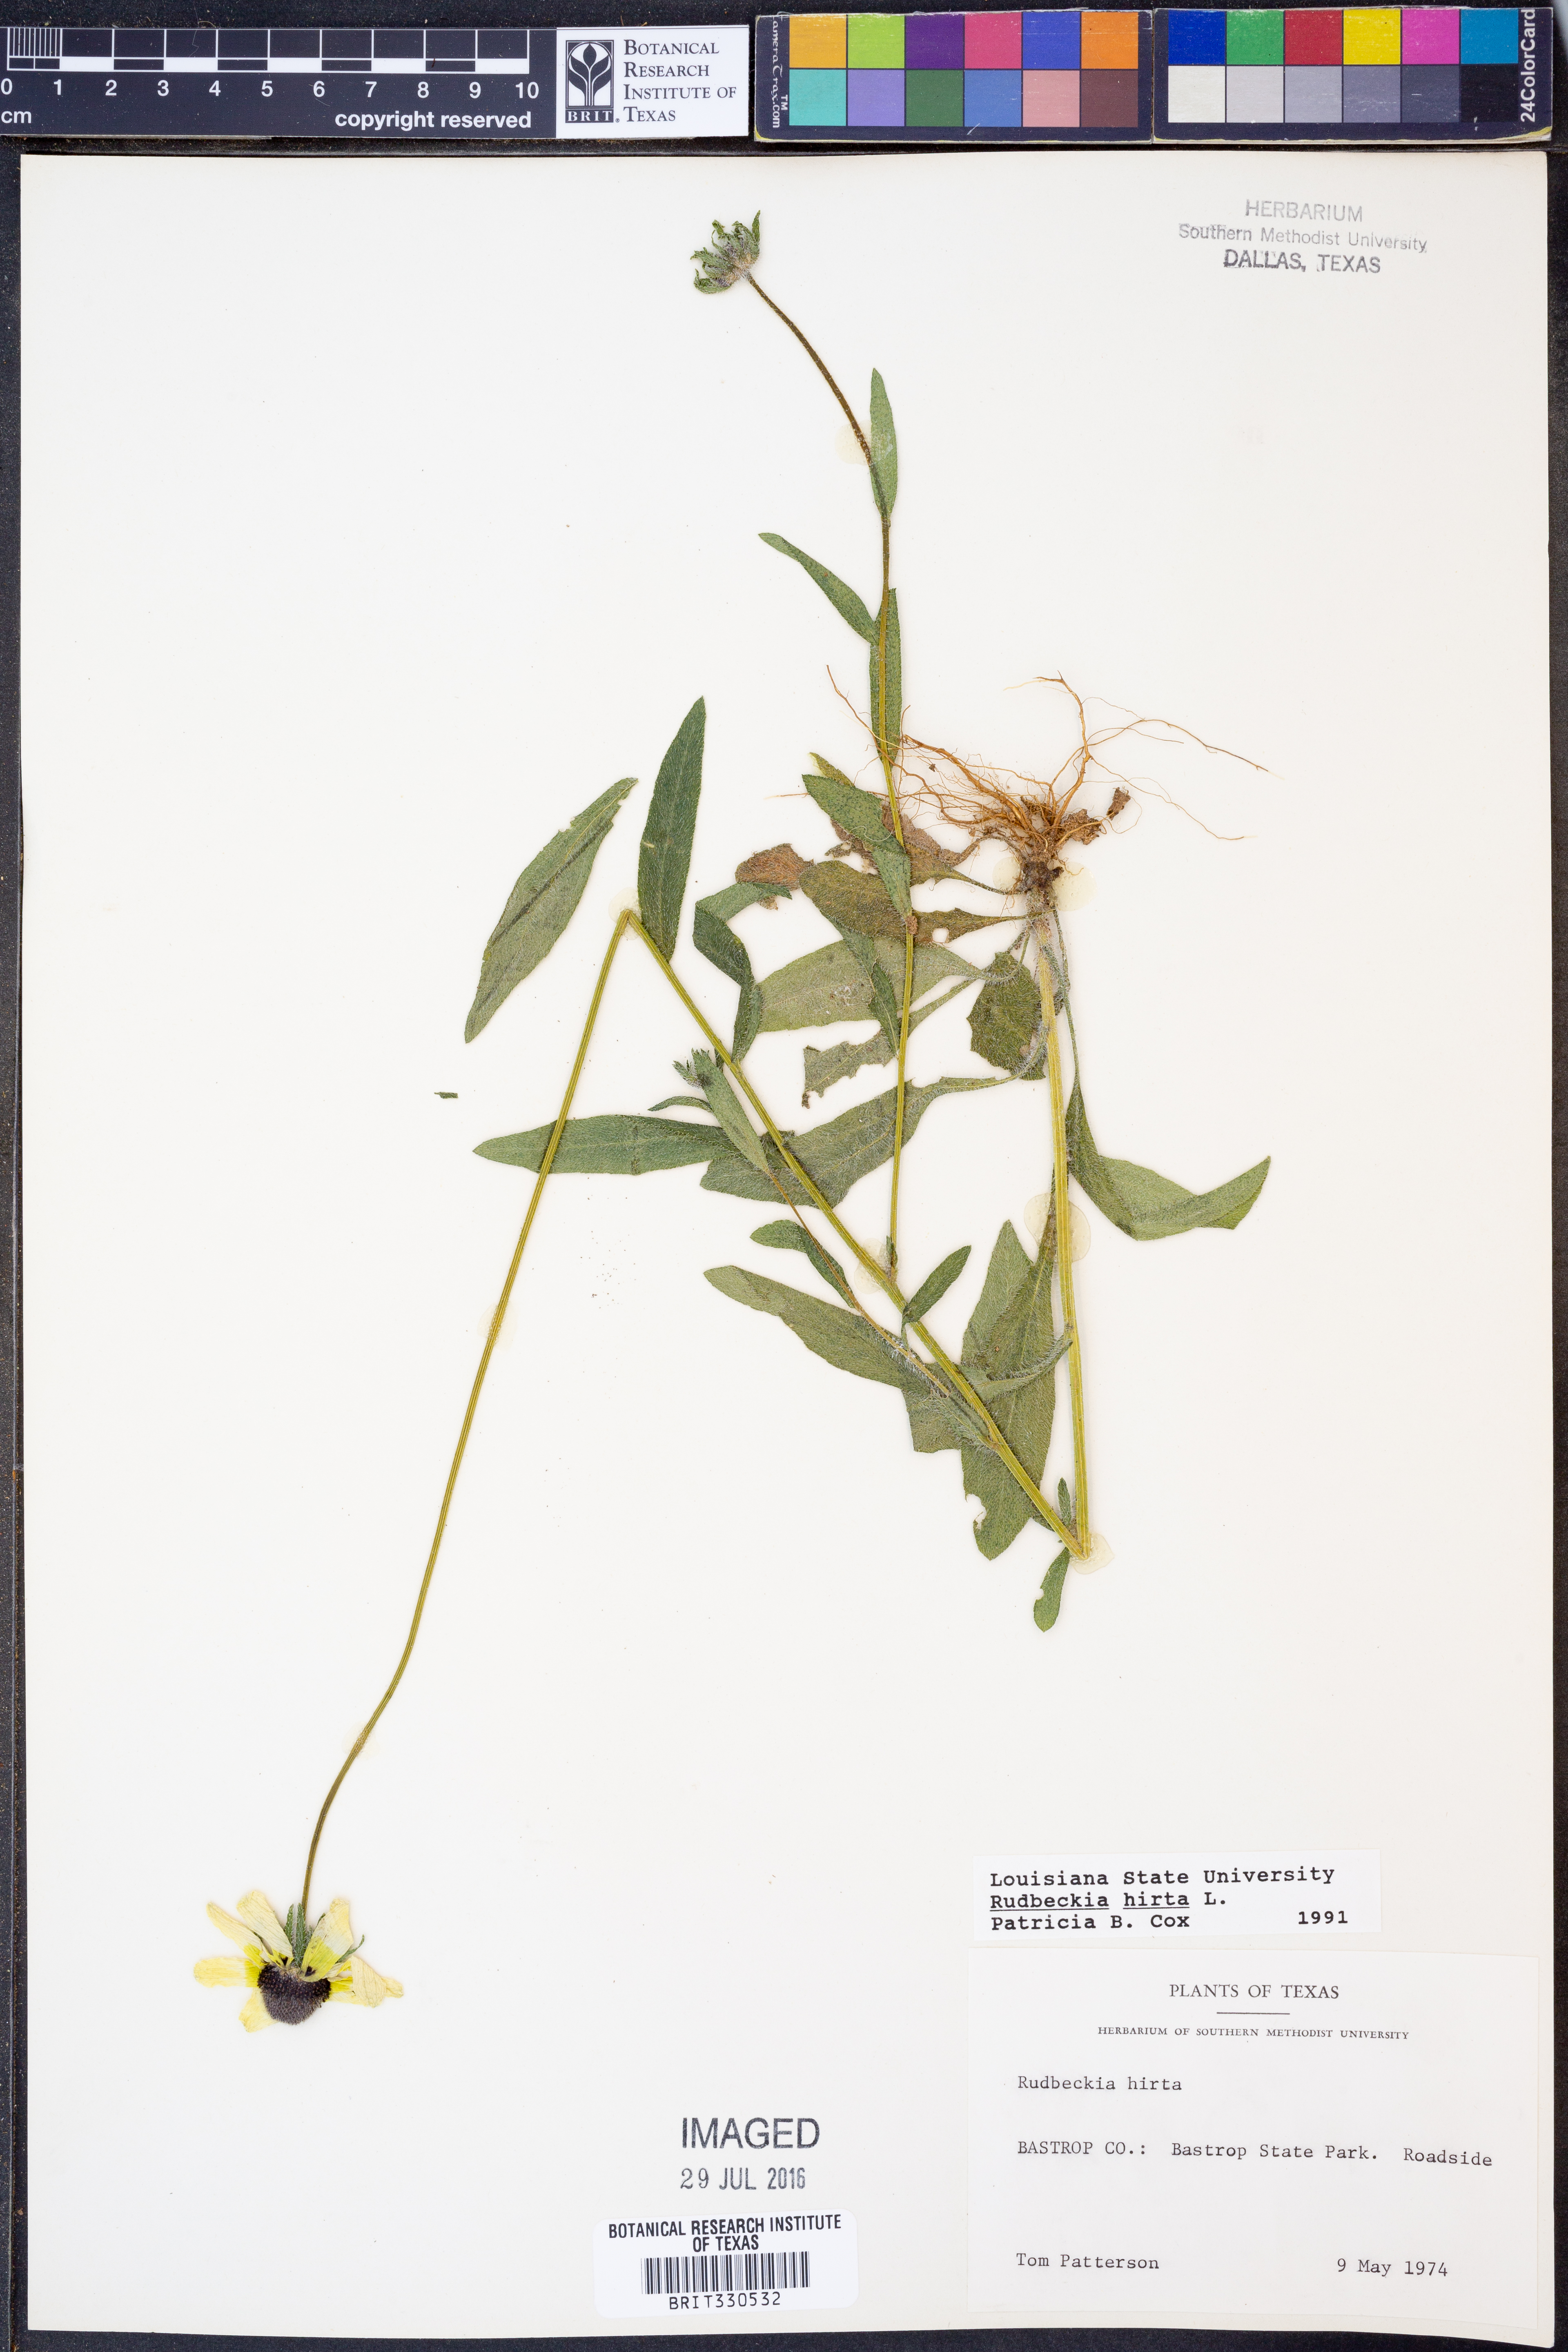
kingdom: Plantae
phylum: Tracheophyta
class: Magnoliopsida
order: Asterales
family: Asteraceae
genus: Rudbeckia
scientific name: Rudbeckia hirta
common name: Black-eyed-susan
